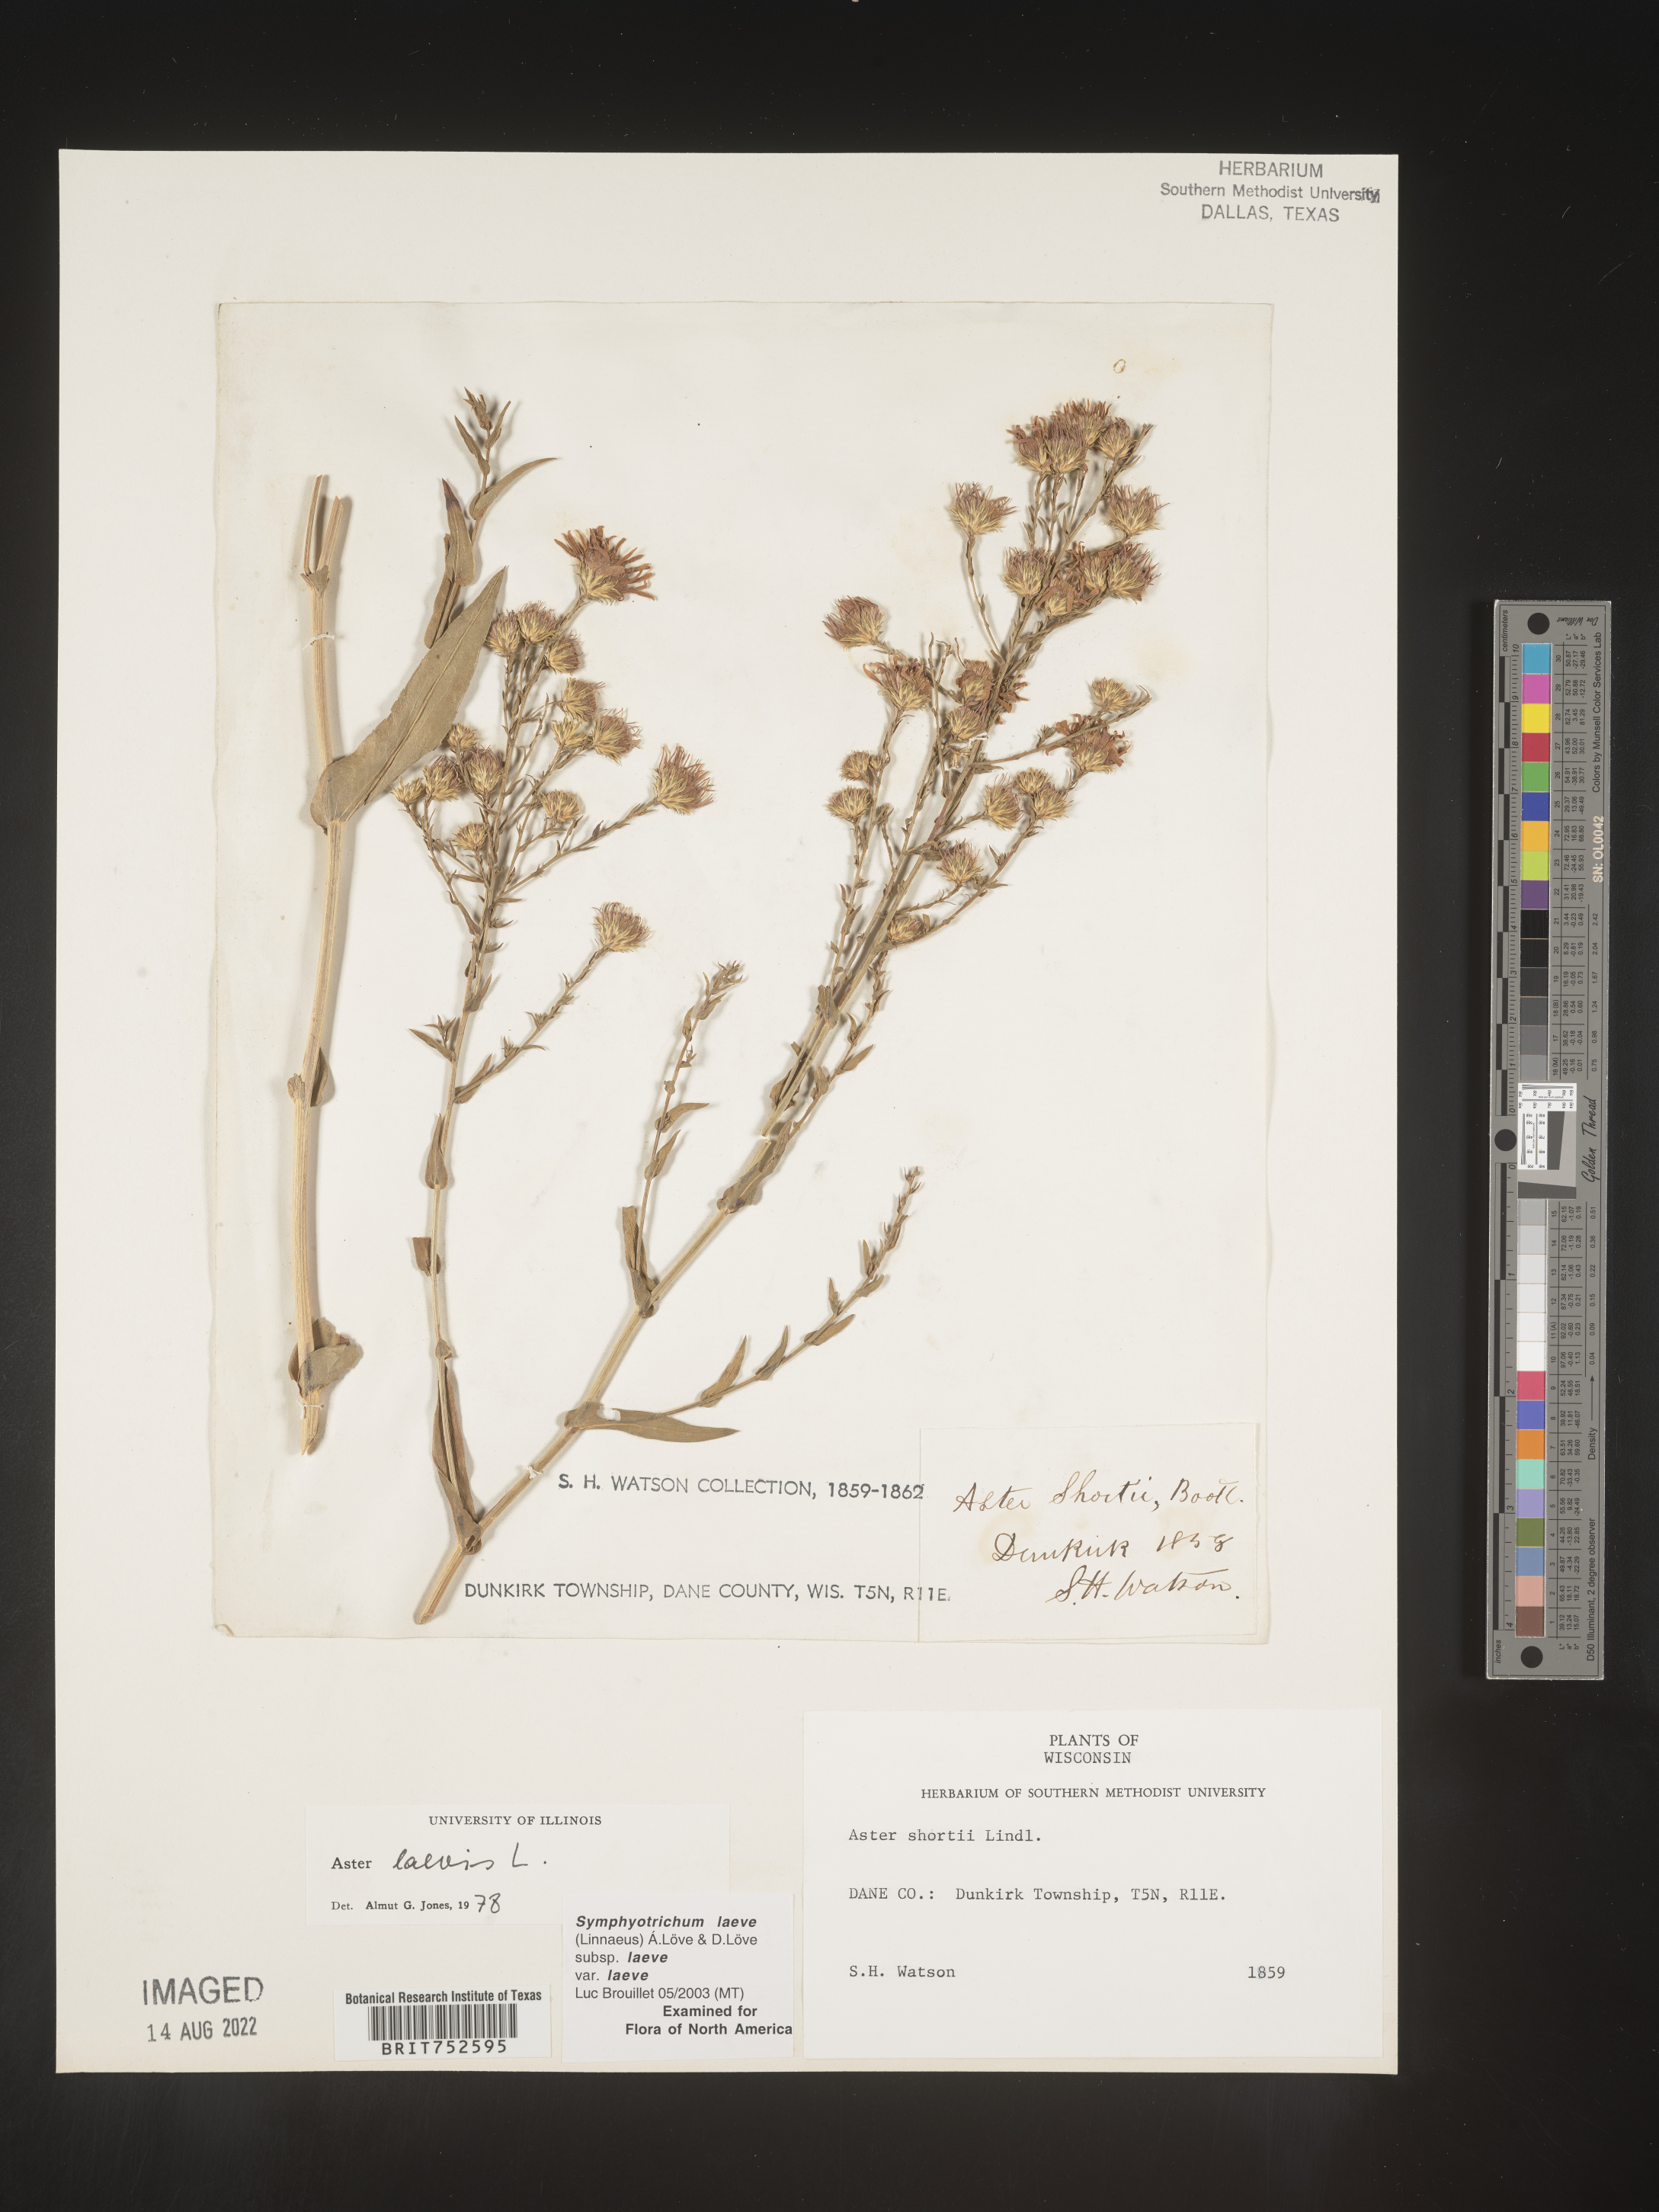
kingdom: Plantae
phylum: Tracheophyta
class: Magnoliopsida
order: Asterales
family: Asteraceae
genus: Symphyotrichum
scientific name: Symphyotrichum laeve
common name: Glaucous aster
